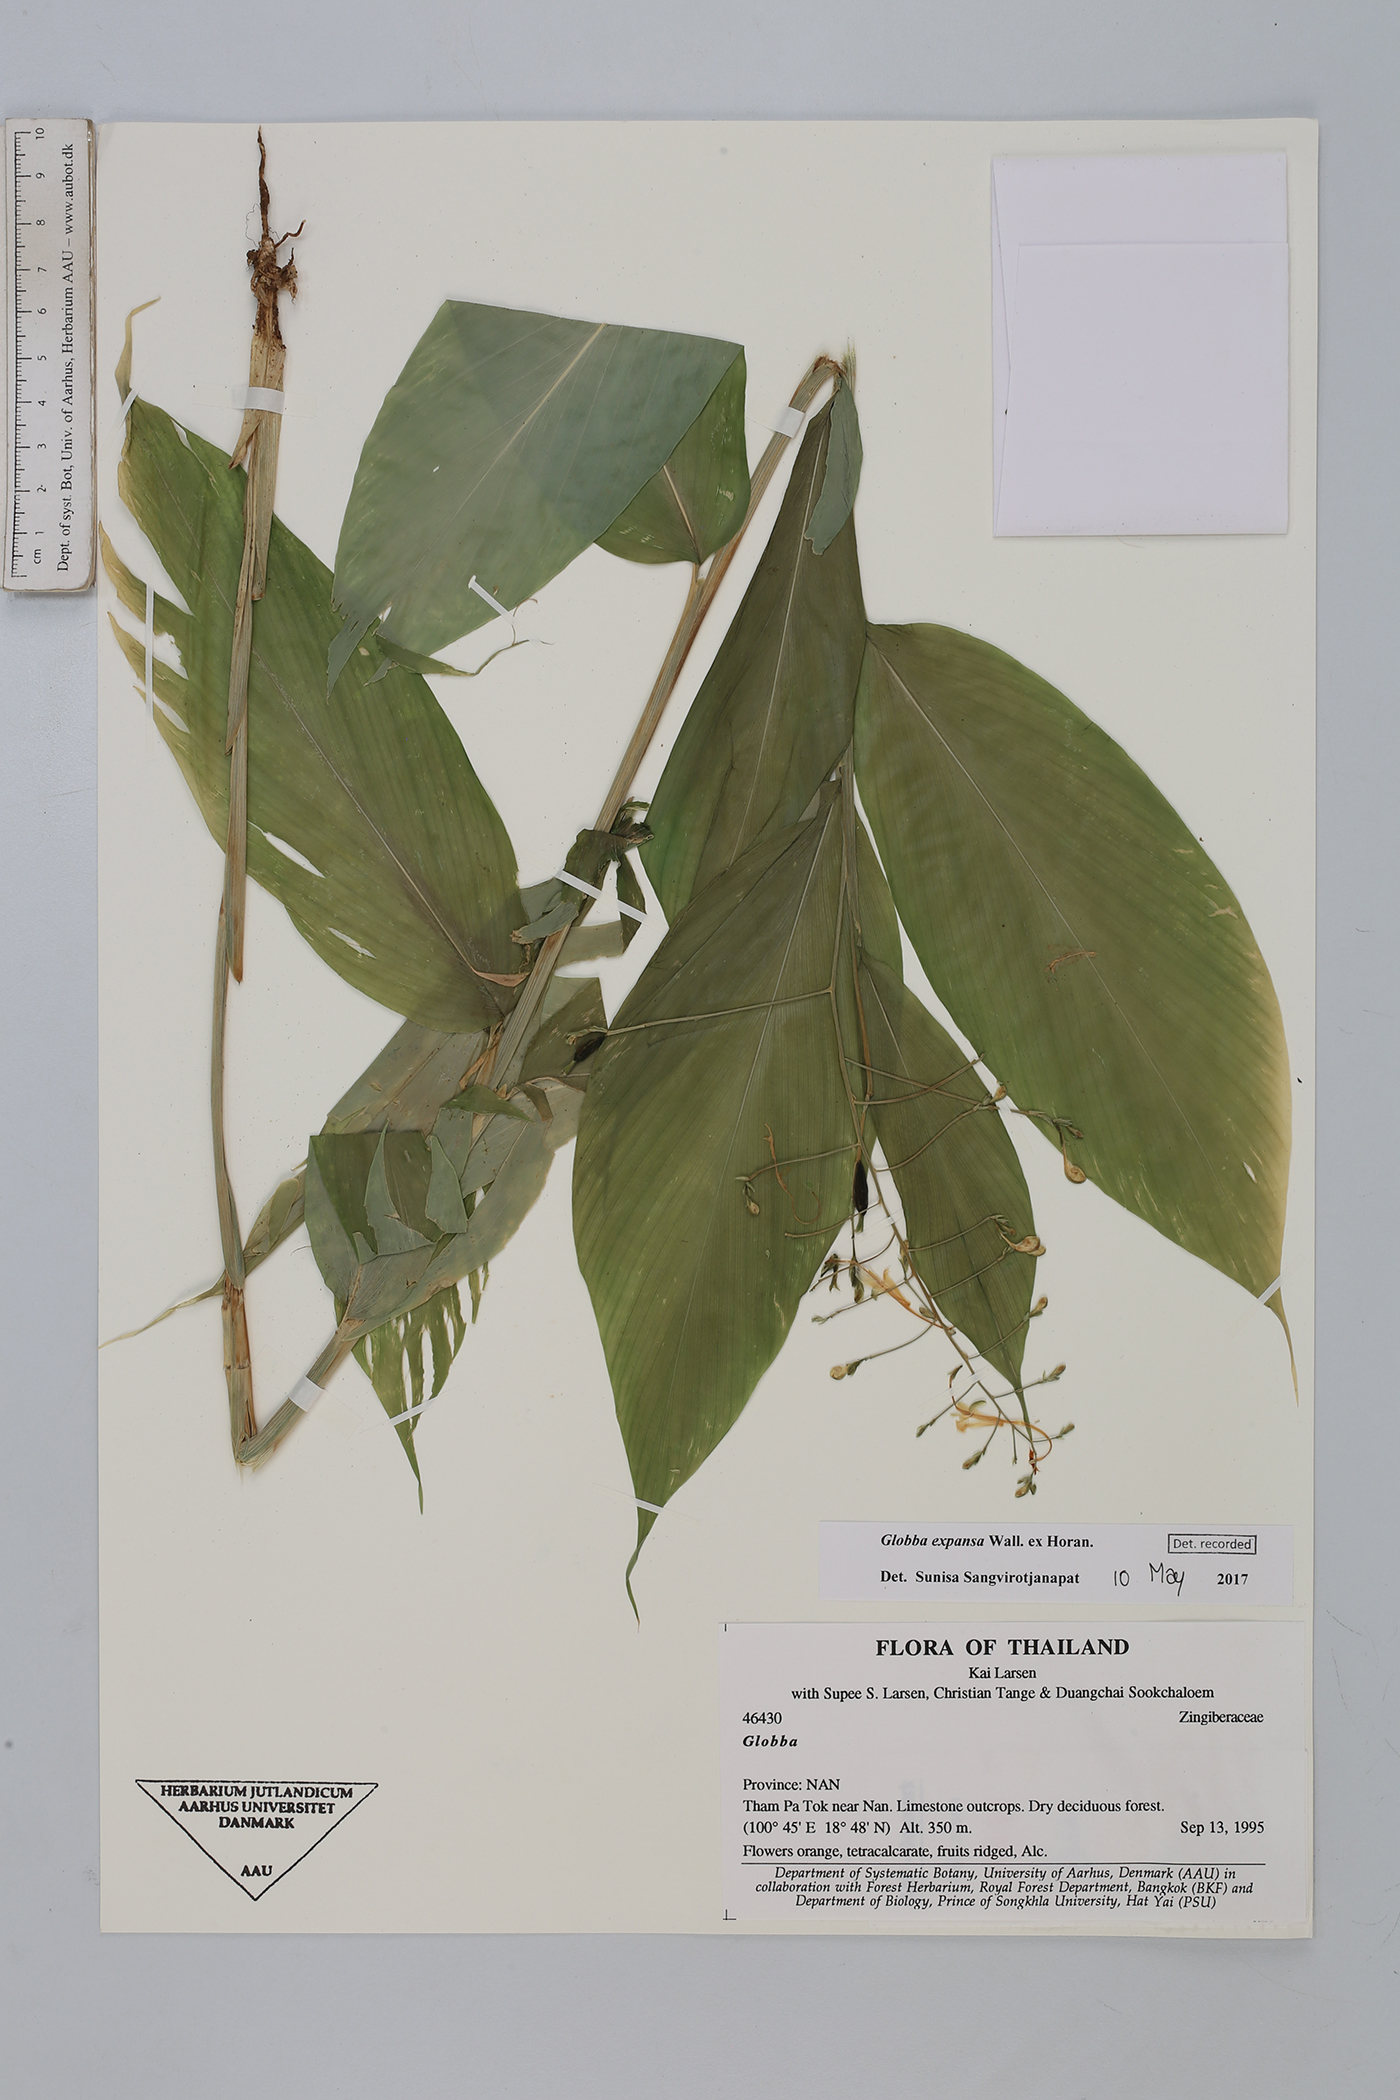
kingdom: Plantae
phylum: Tracheophyta
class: Liliopsida
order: Zingiberales
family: Zingiberaceae
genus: Globba
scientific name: Globba expansa
